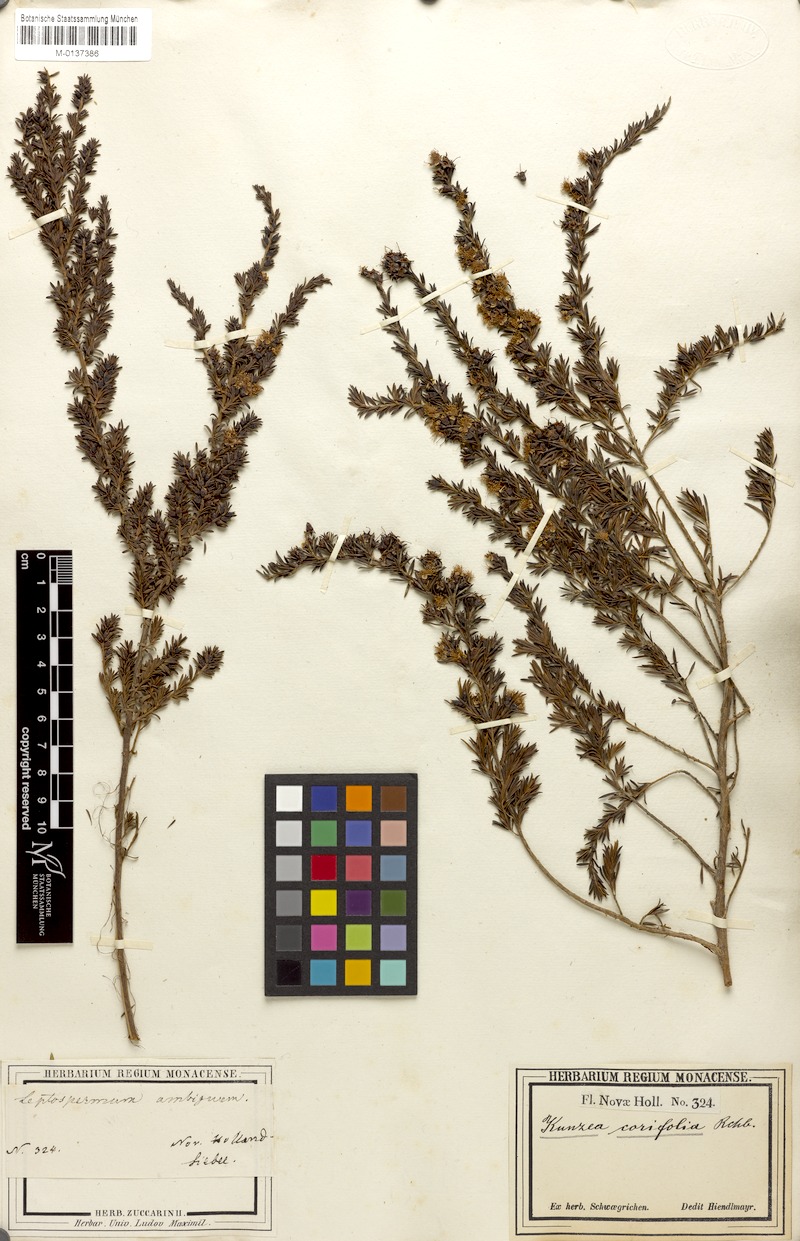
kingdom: Plantae
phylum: Tracheophyta
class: Magnoliopsida
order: Myrtales
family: Myrtaceae
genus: Kunzea
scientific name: Kunzea ericifolia
